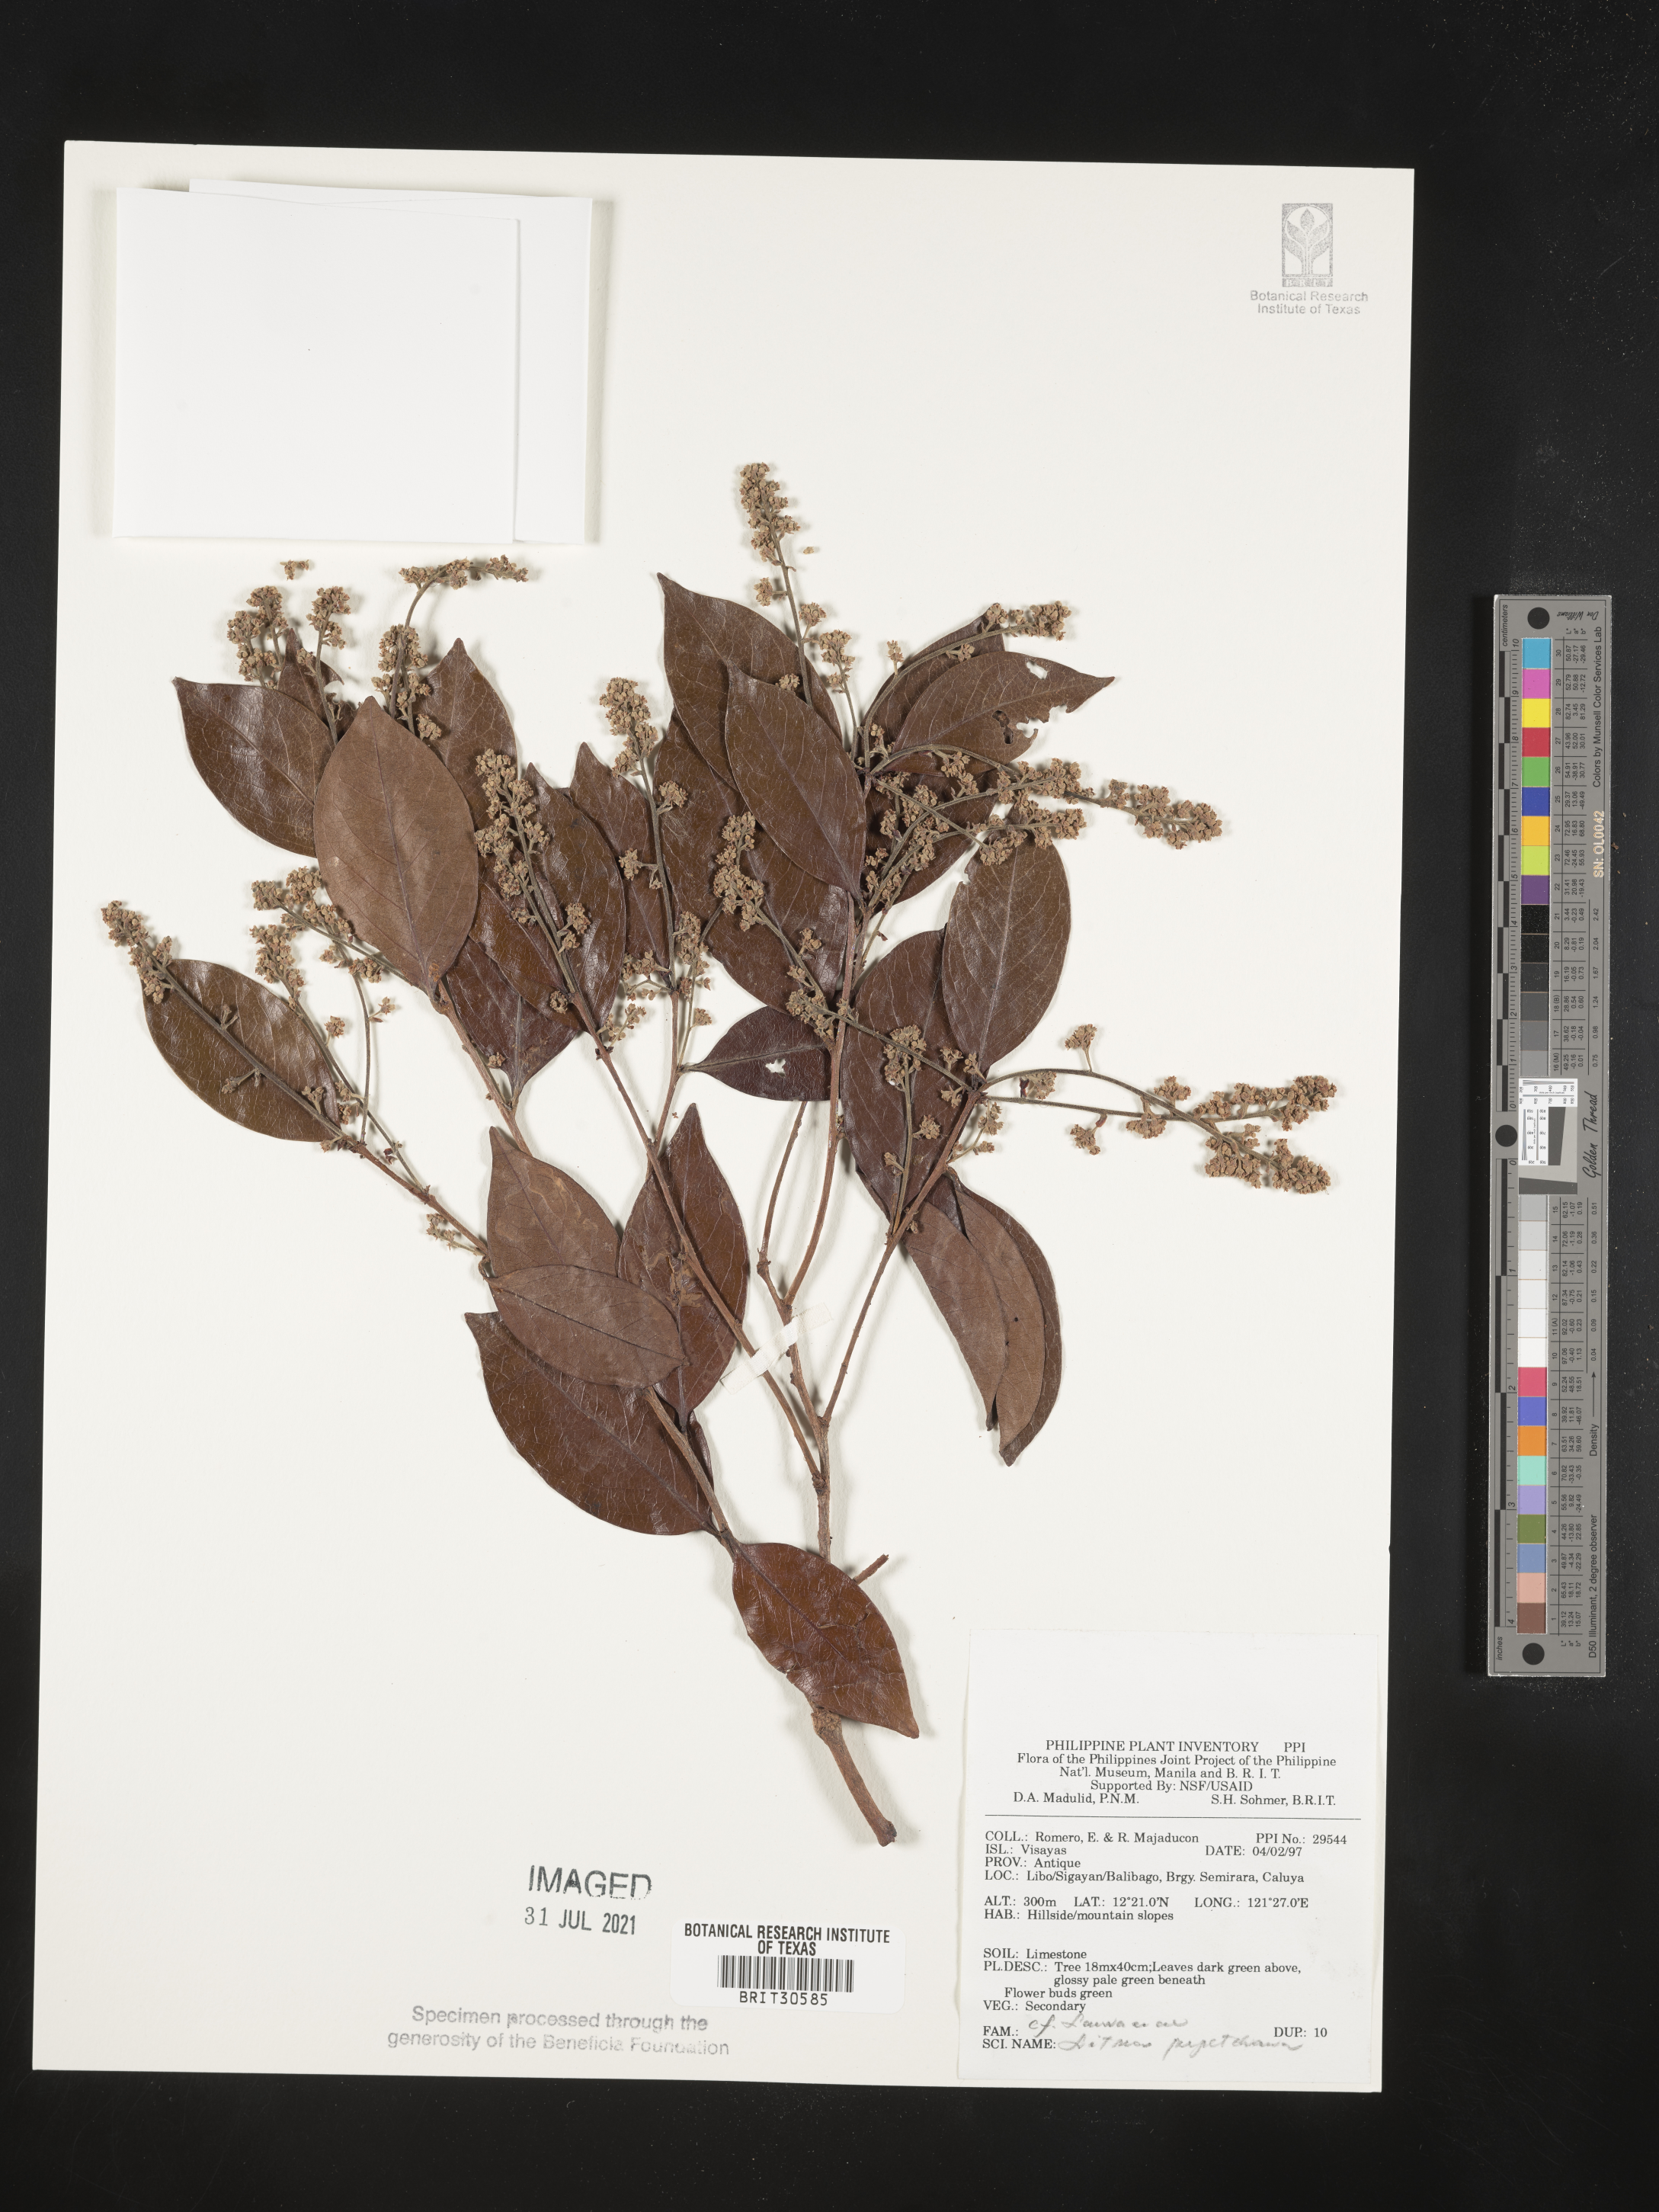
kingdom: Plantae
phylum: Tracheophyta
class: Magnoliopsida
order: Laurales
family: Lauraceae
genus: Litsea
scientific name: Litsea
